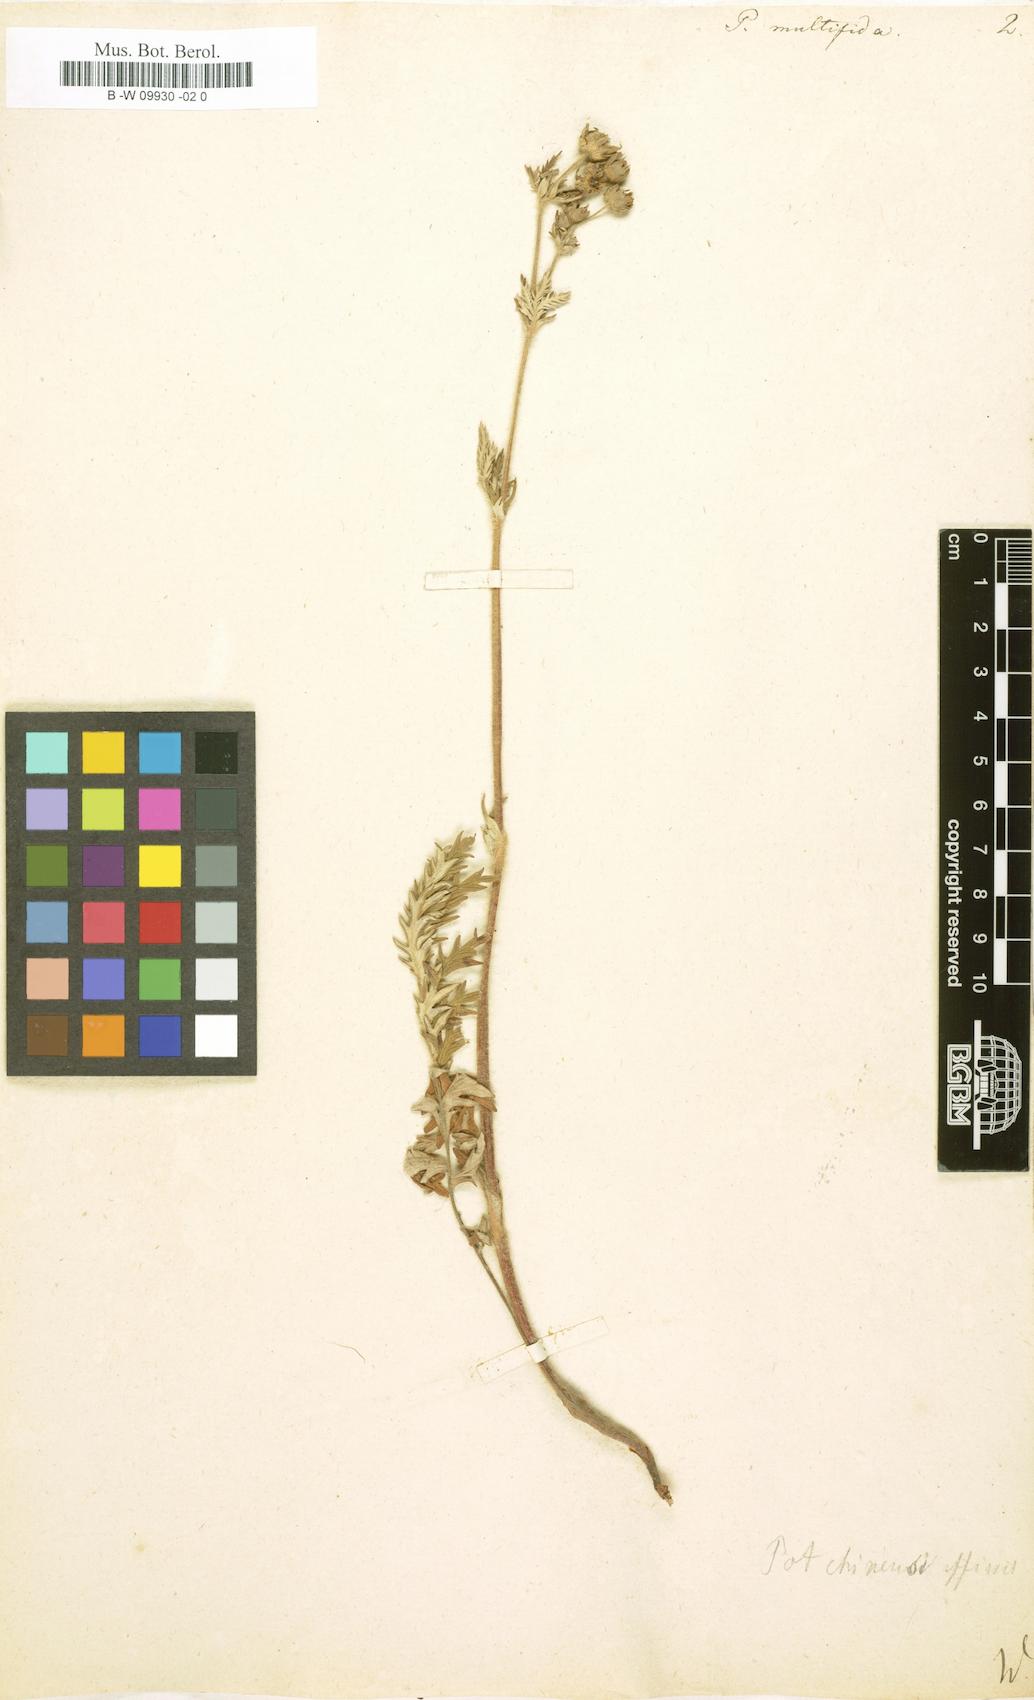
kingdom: Plantae
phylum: Tracheophyta
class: Magnoliopsida
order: Rosales
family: Rosaceae
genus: Potentilla
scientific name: Potentilla multifida
